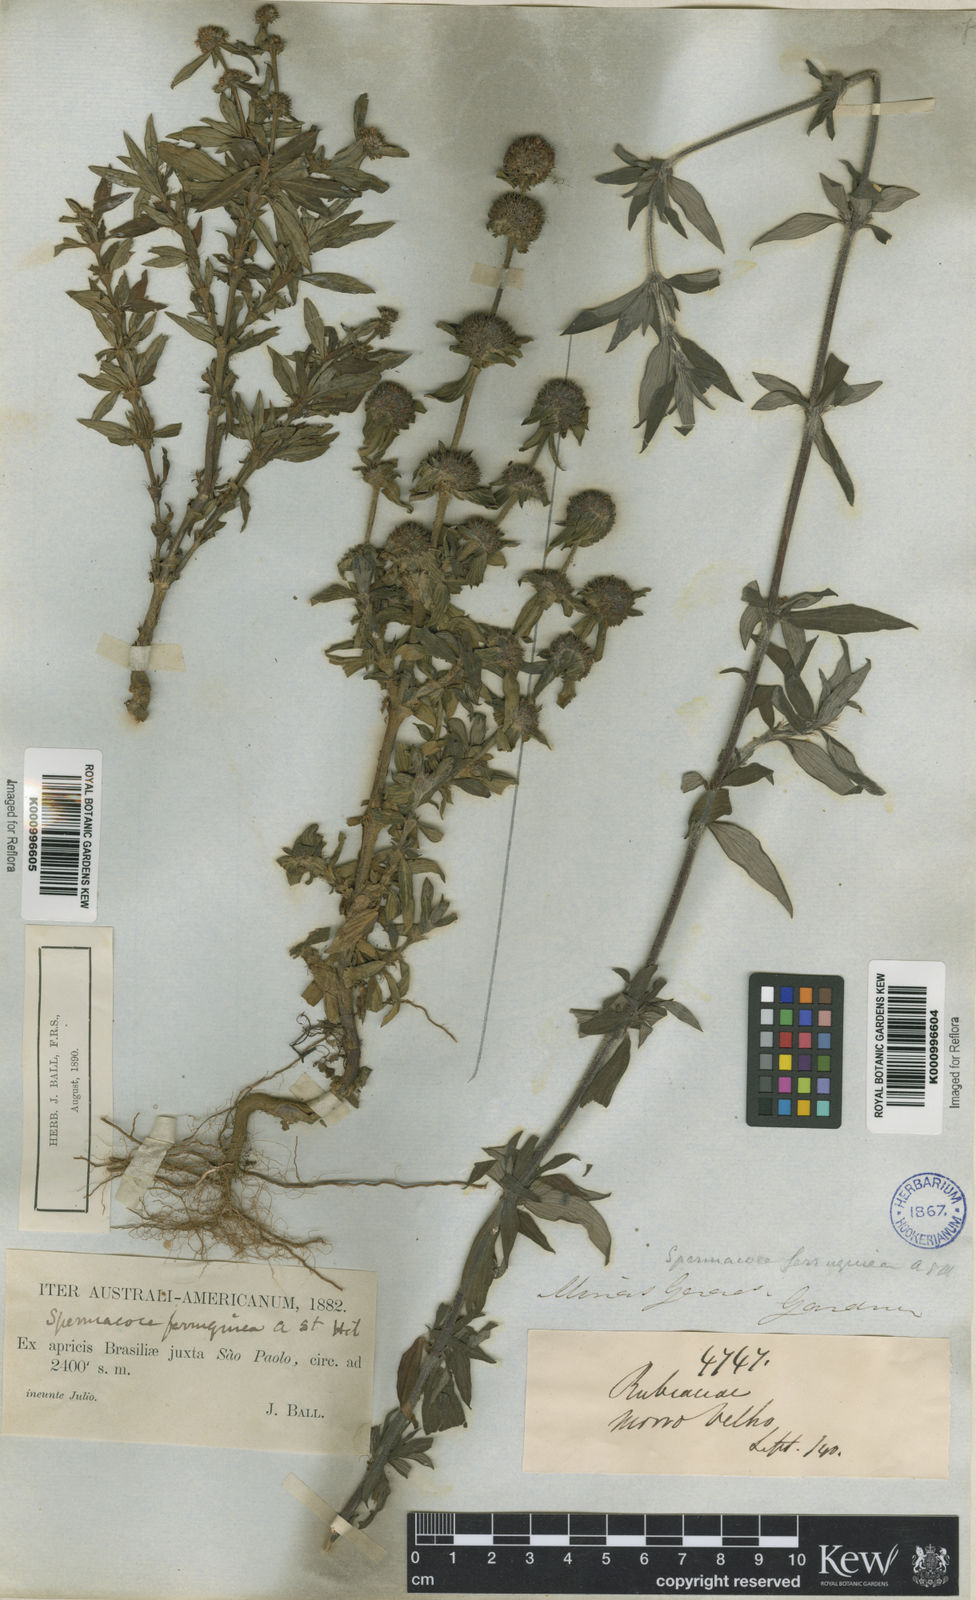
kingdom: Plantae
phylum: Tracheophyta
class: Magnoliopsida
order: Gentianales
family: Rubiaceae
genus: Spermacoce
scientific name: Spermacoce capitata
